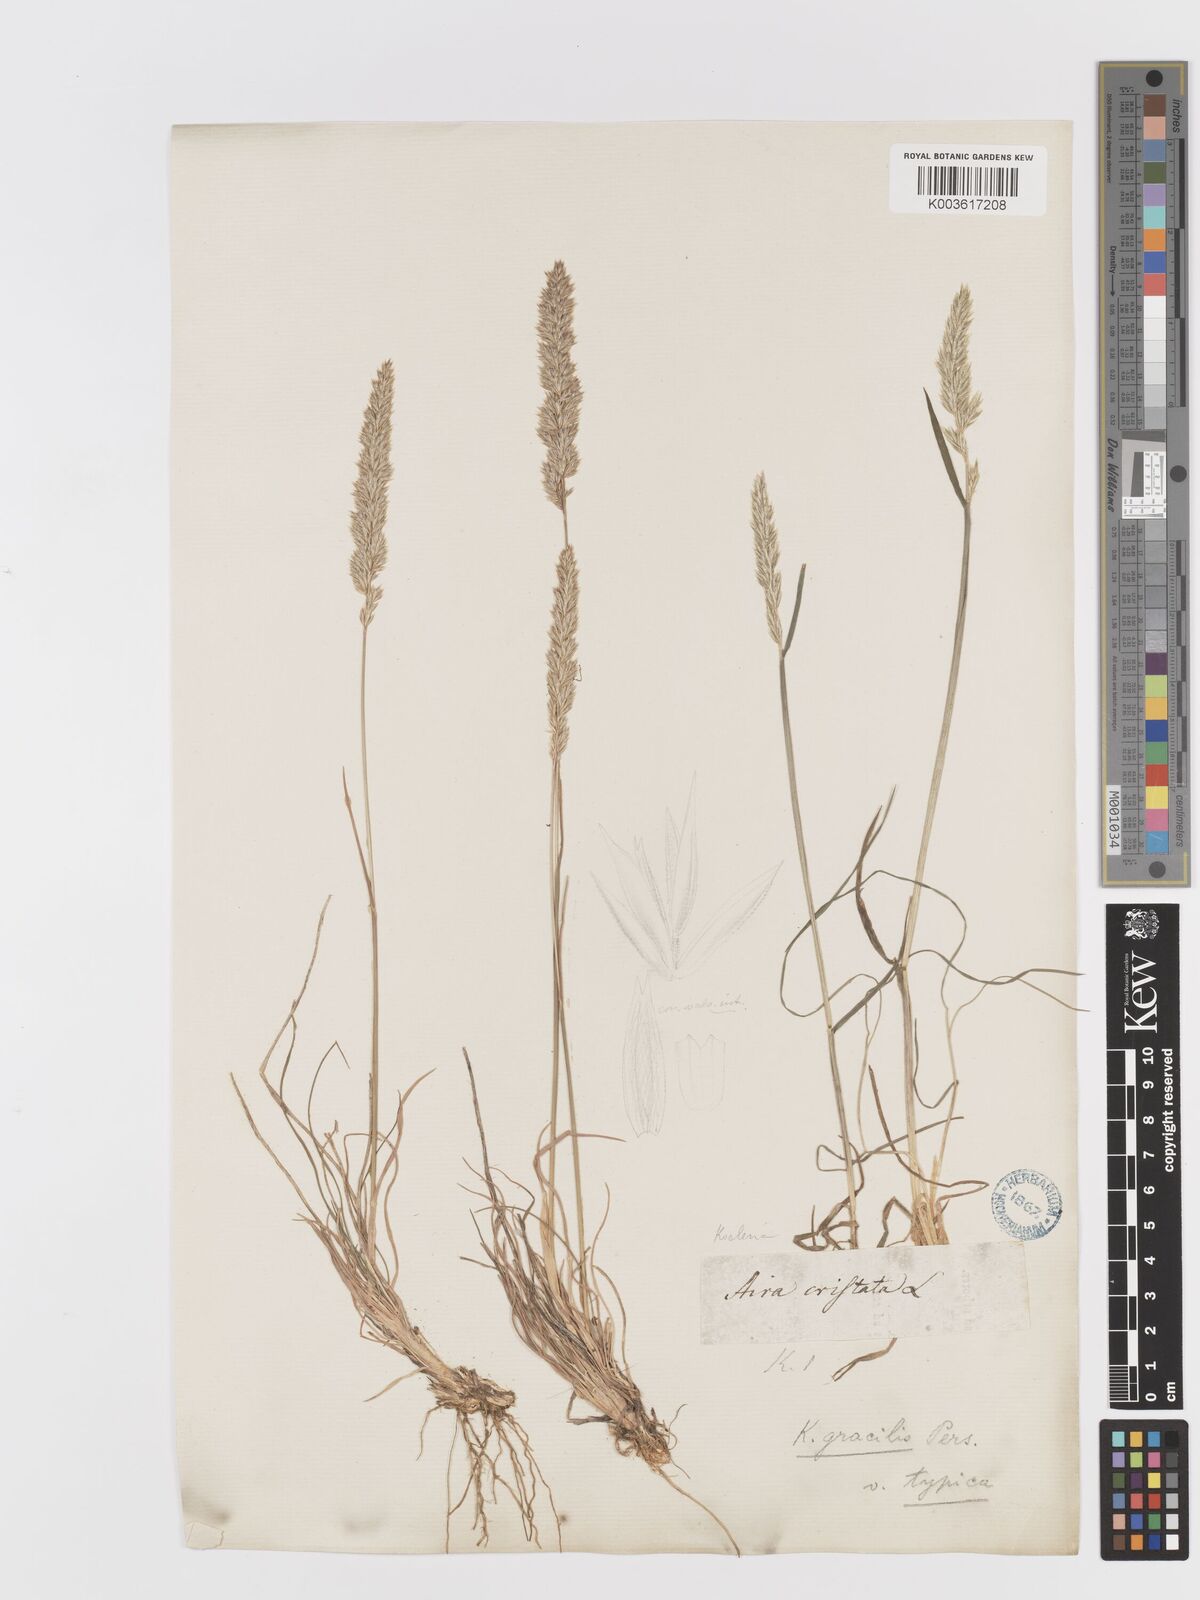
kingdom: Plantae
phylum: Tracheophyta
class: Liliopsida
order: Poales
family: Poaceae
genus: Koeleria
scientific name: Koeleria macrantha
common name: Crested hair-grass
